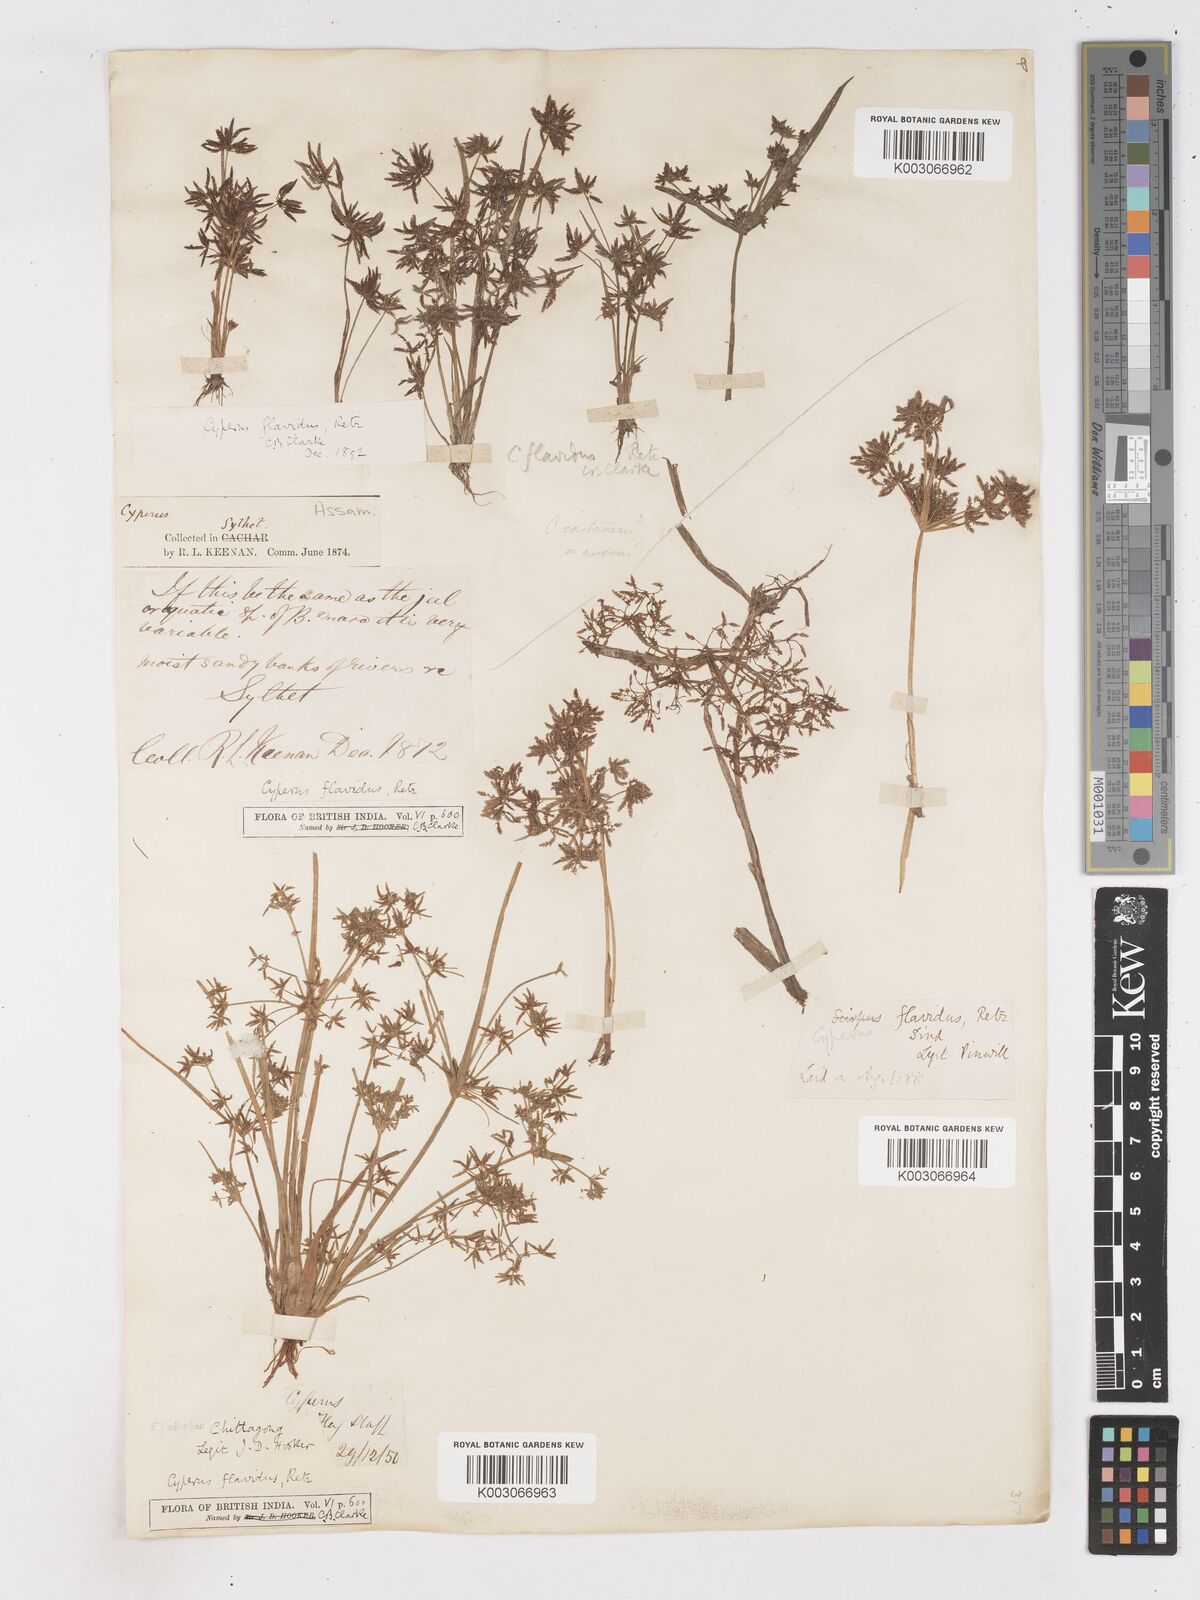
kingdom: Plantae
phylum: Tracheophyta
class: Liliopsida
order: Poales
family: Cyperaceae
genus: Cyperus
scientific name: Cyperus tenuispica
